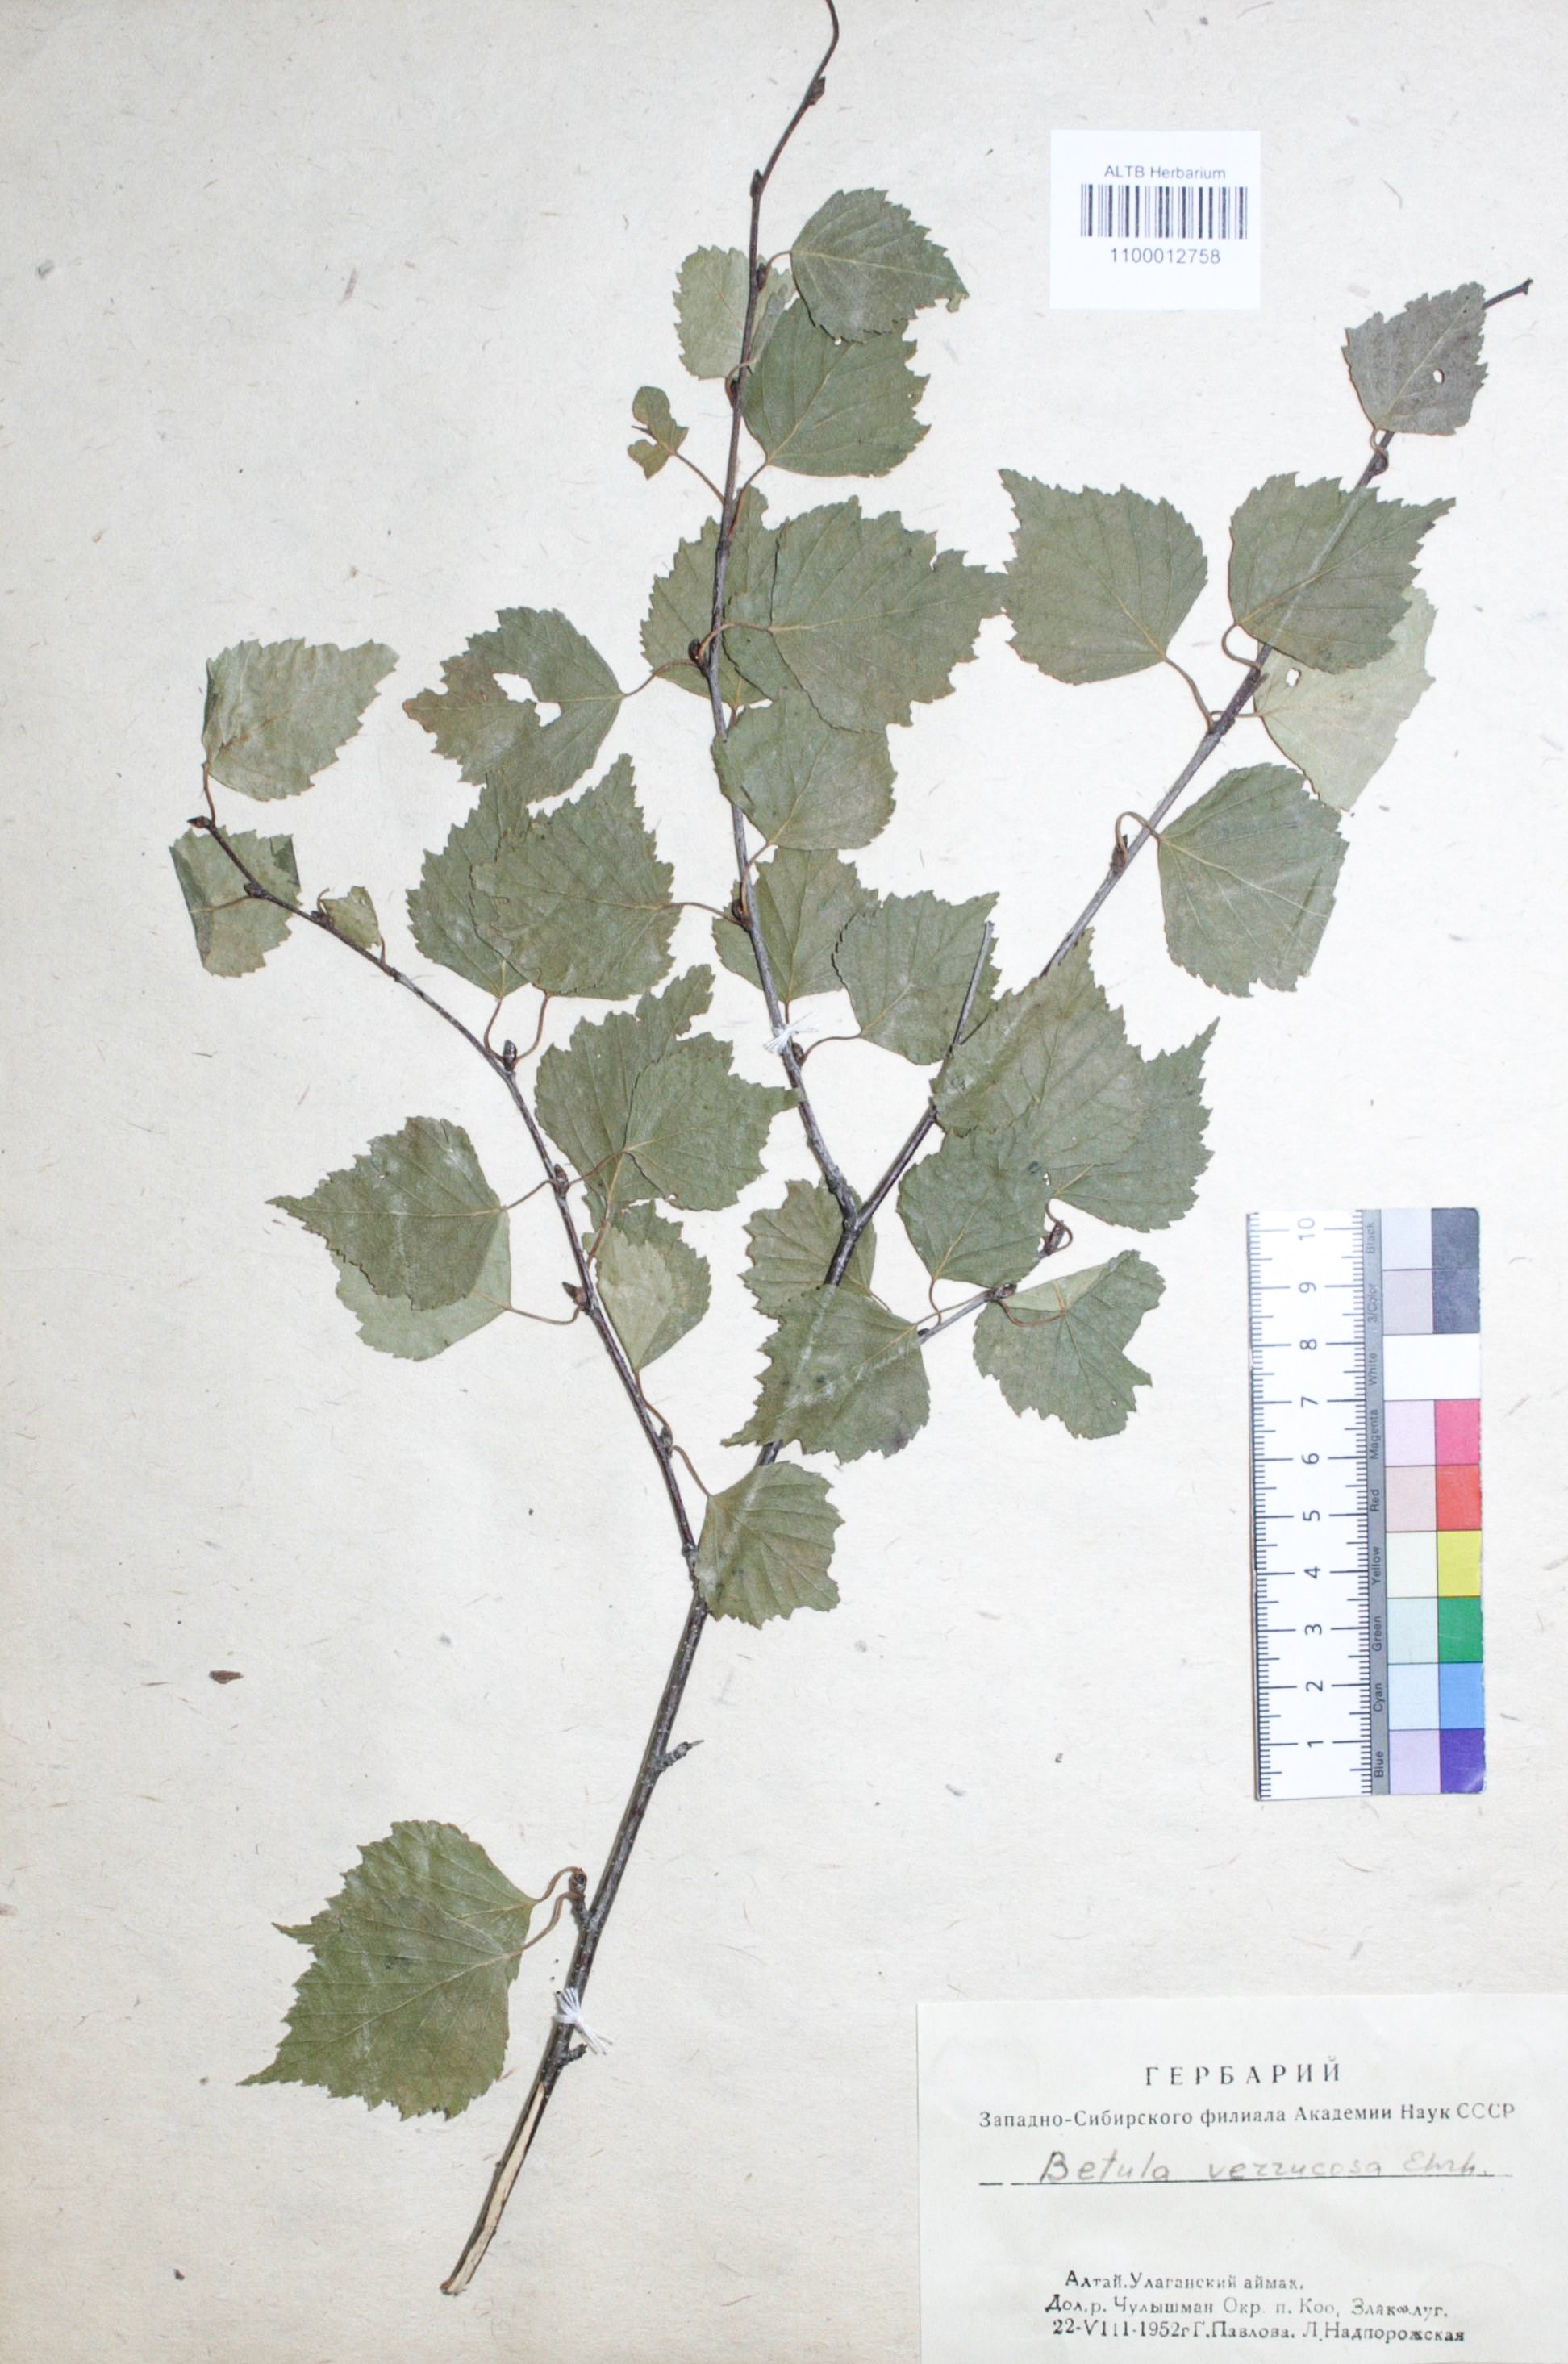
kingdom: Plantae
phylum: Tracheophyta
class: Magnoliopsida
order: Fagales
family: Betulaceae
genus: Betula
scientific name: Betula pendula
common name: Silver birch
